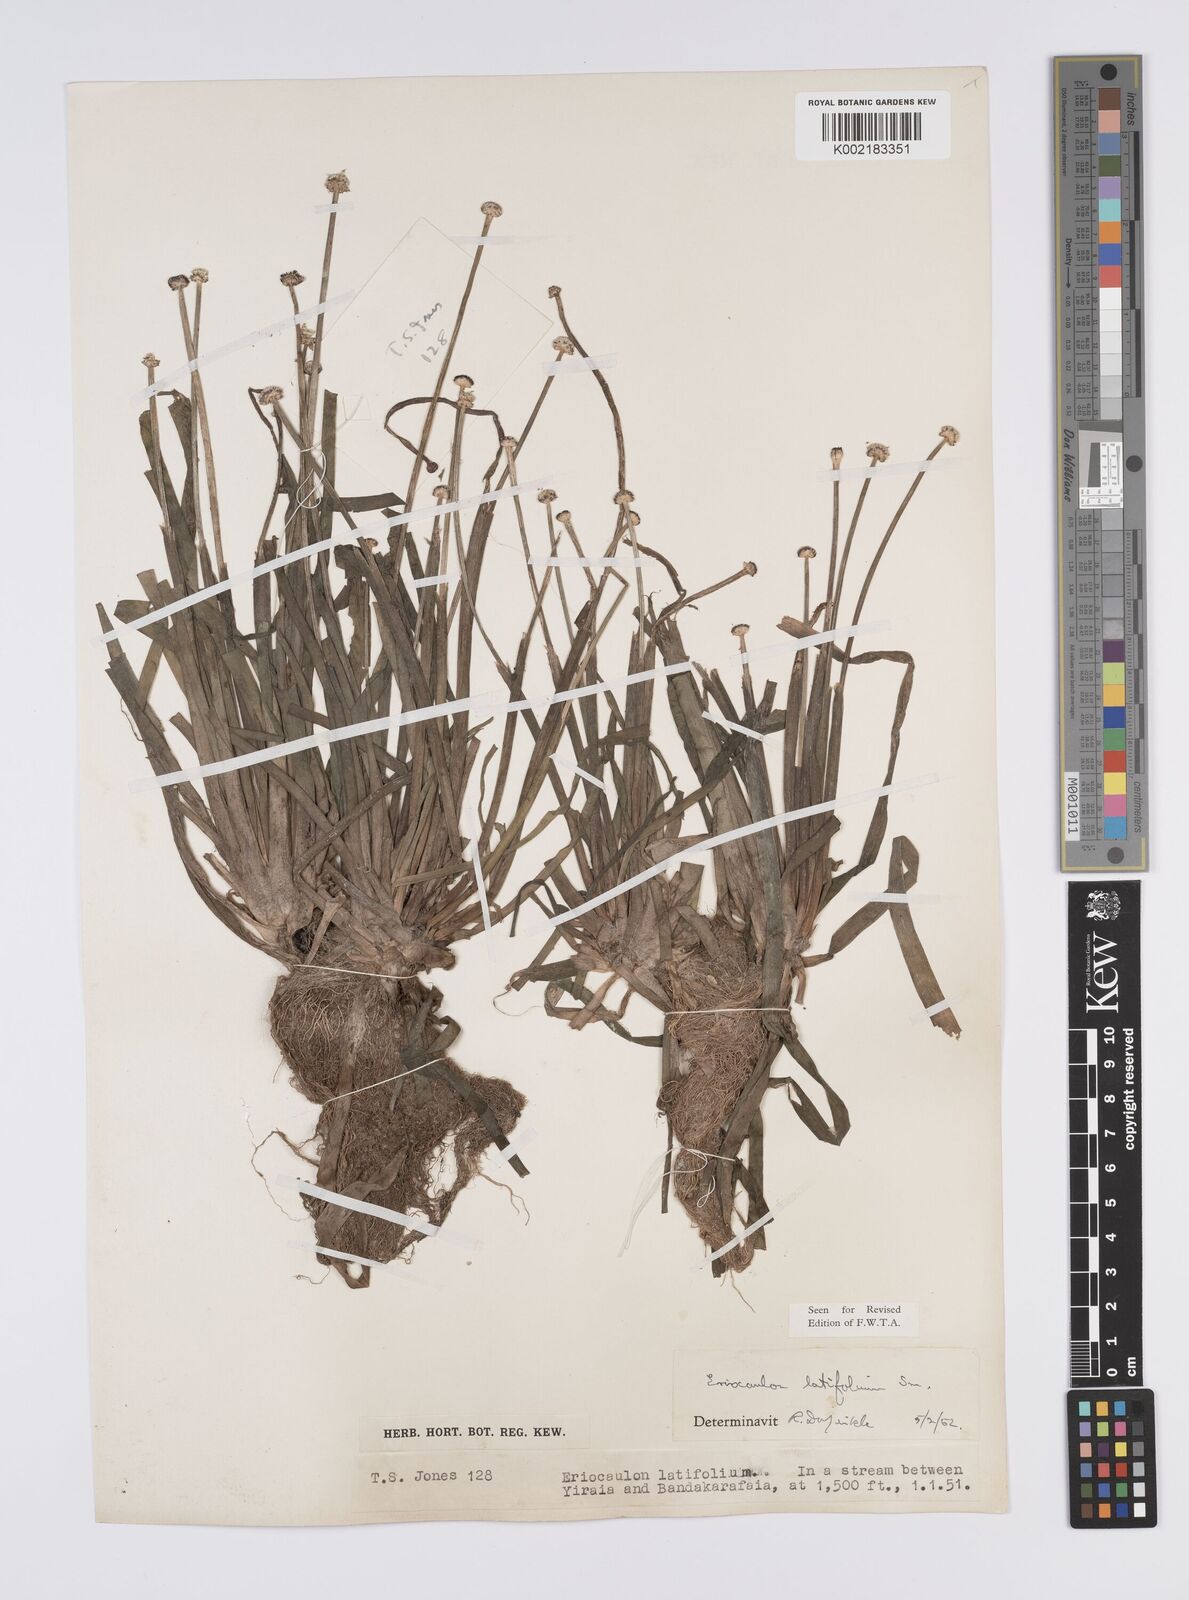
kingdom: Plantae
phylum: Tracheophyta
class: Liliopsida
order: Poales
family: Eriocaulaceae
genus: Eriocaulon
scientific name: Eriocaulon latifolium
